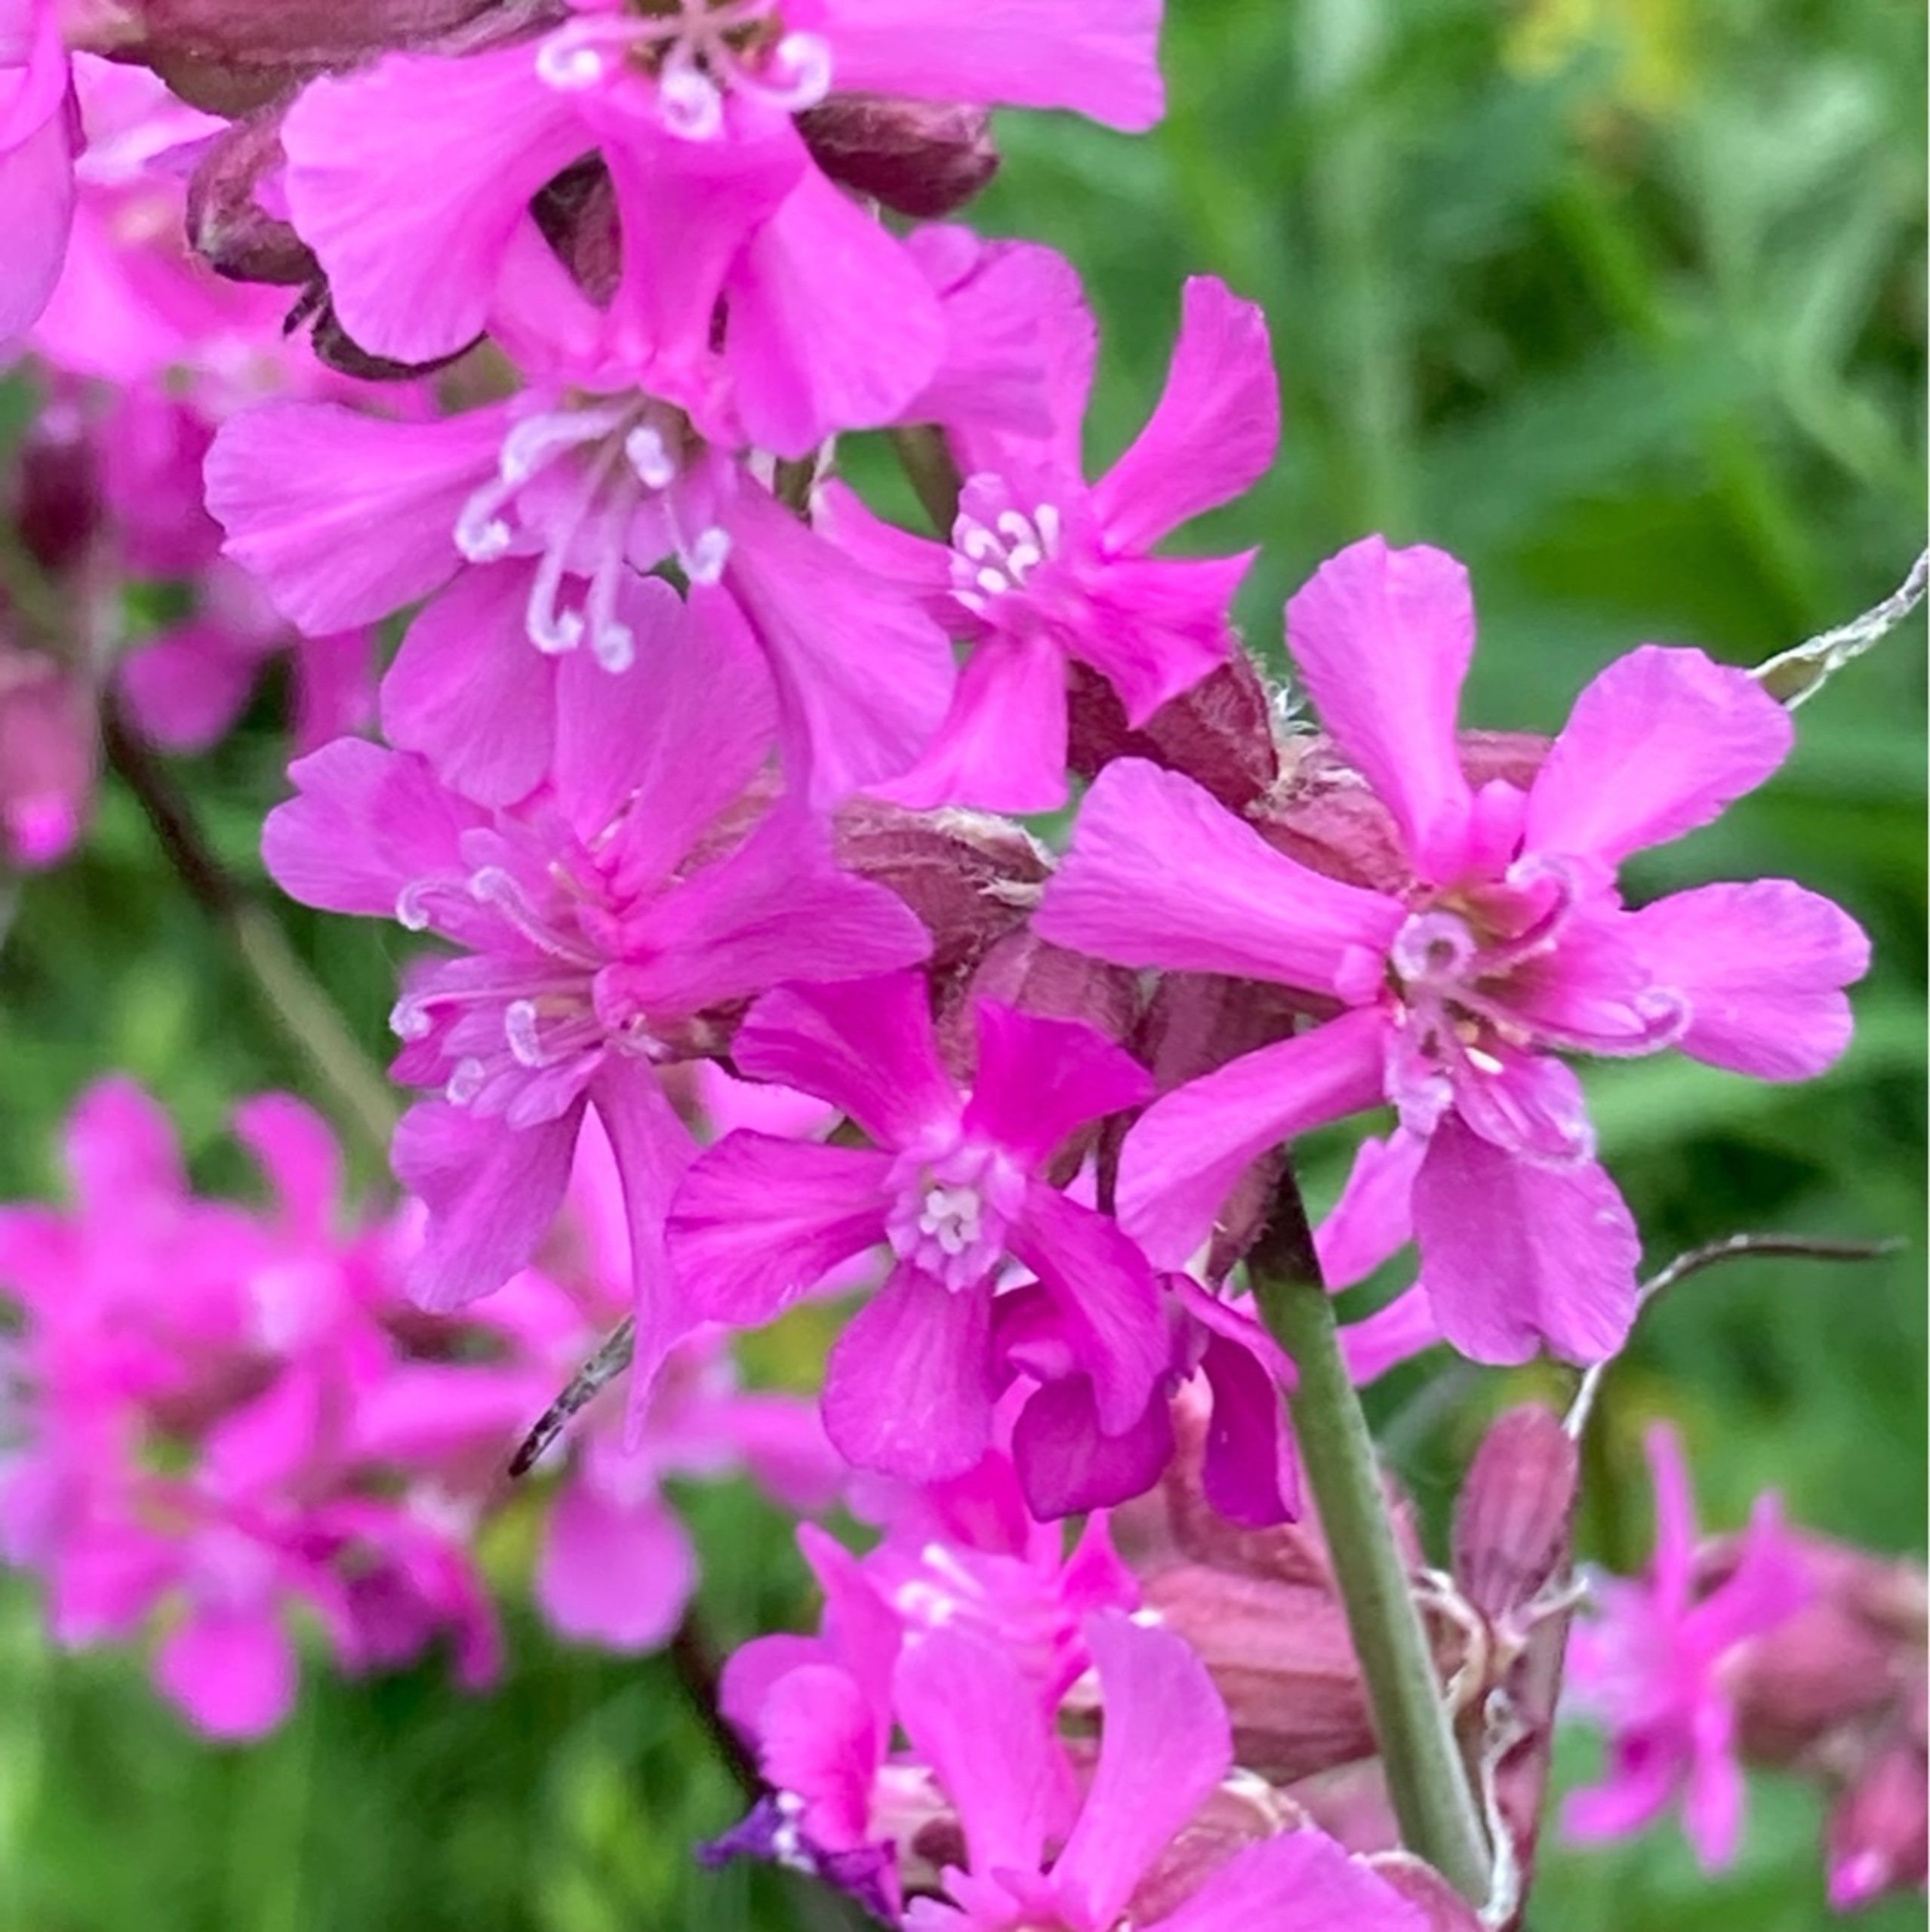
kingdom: Plantae
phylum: Tracheophyta
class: Magnoliopsida
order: Caryophyllales
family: Caryophyllaceae
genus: Viscaria
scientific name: Viscaria vulgaris
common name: Tjærenellike
